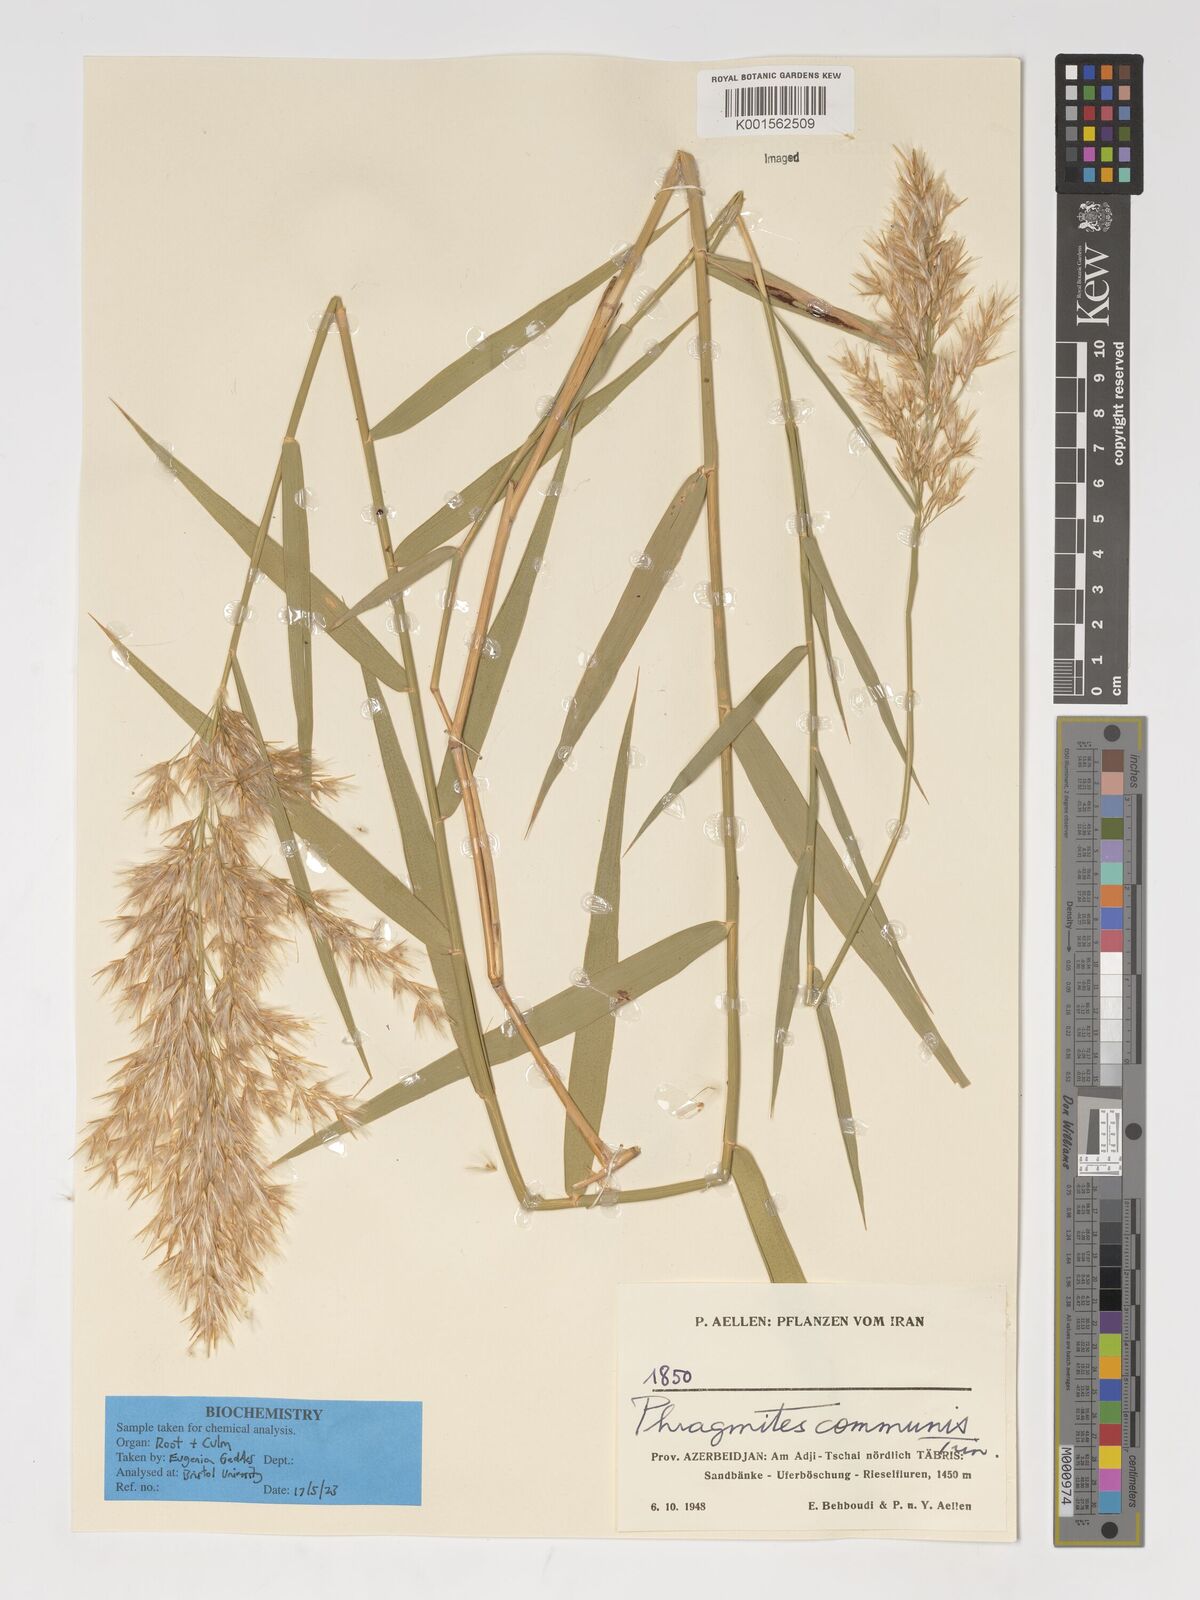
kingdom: Plantae
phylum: Tracheophyta
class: Liliopsida
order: Poales
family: Poaceae
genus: Phragmites
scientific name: Phragmites australis
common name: Common reed
